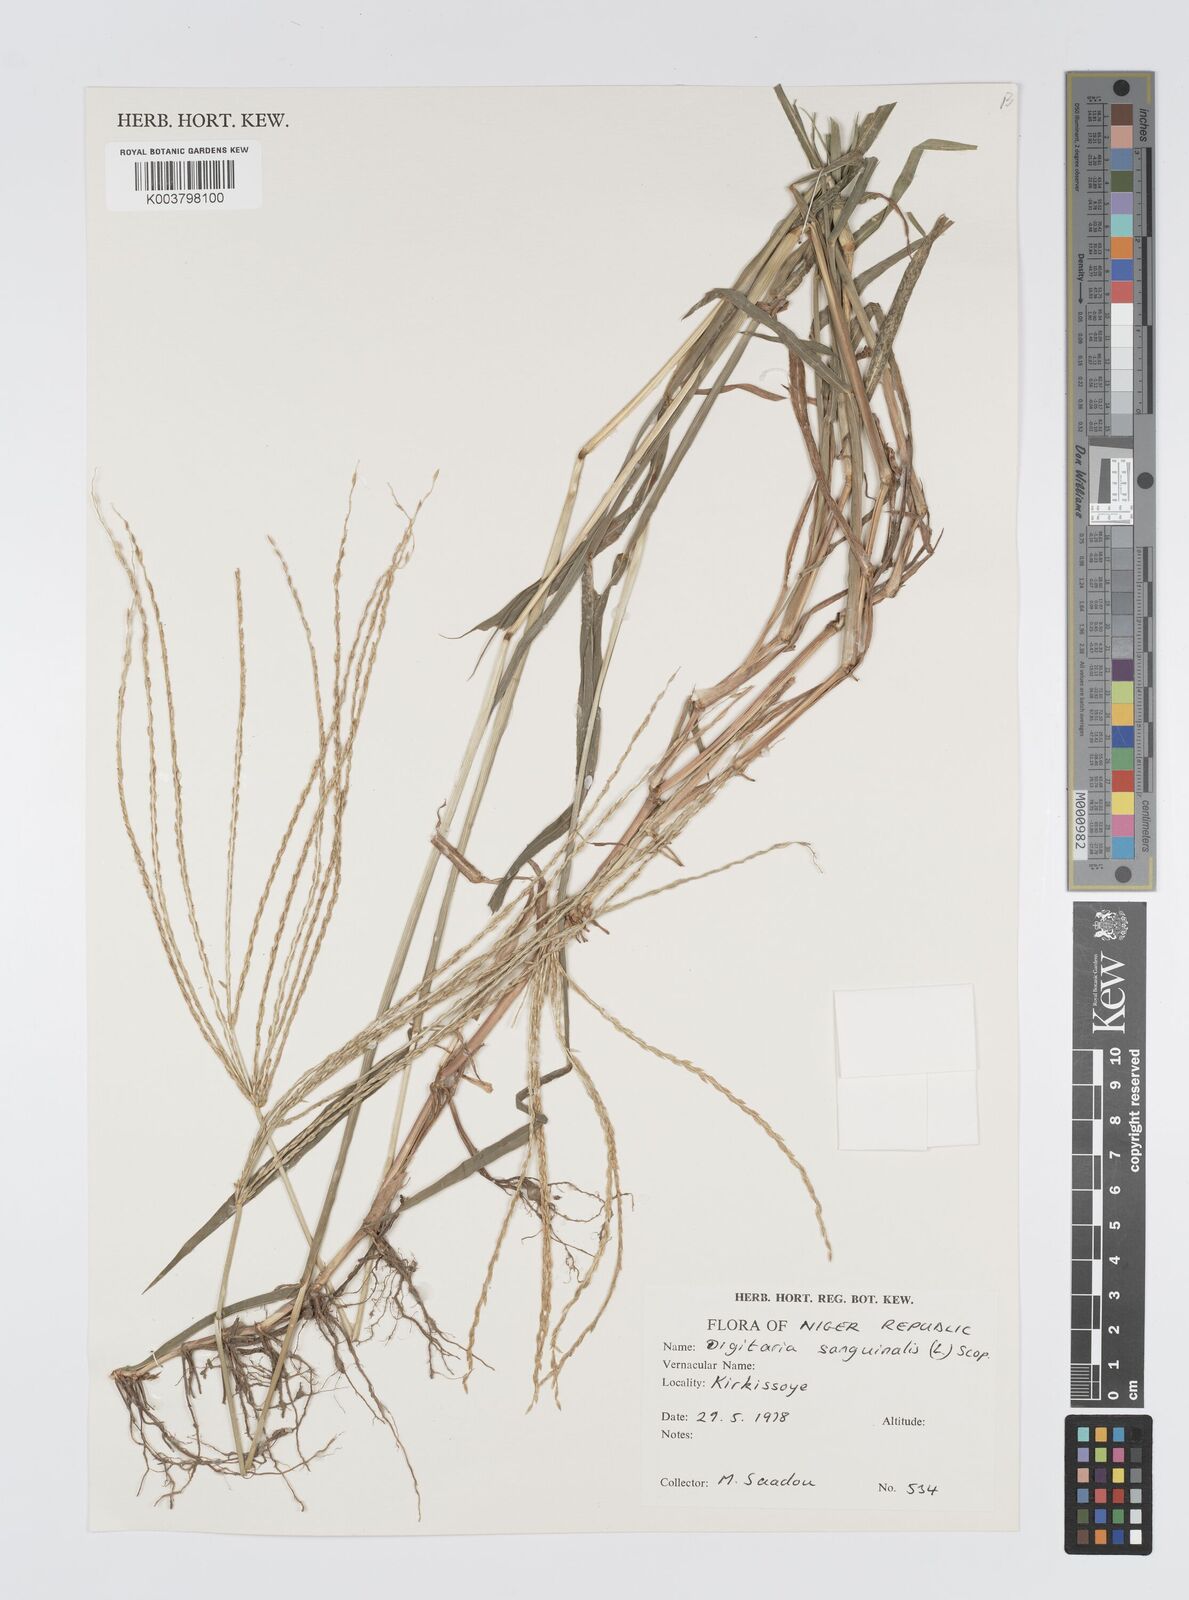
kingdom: Plantae
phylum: Tracheophyta
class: Liliopsida
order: Poales
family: Poaceae
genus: Digitaria
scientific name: Digitaria acuminatissima
